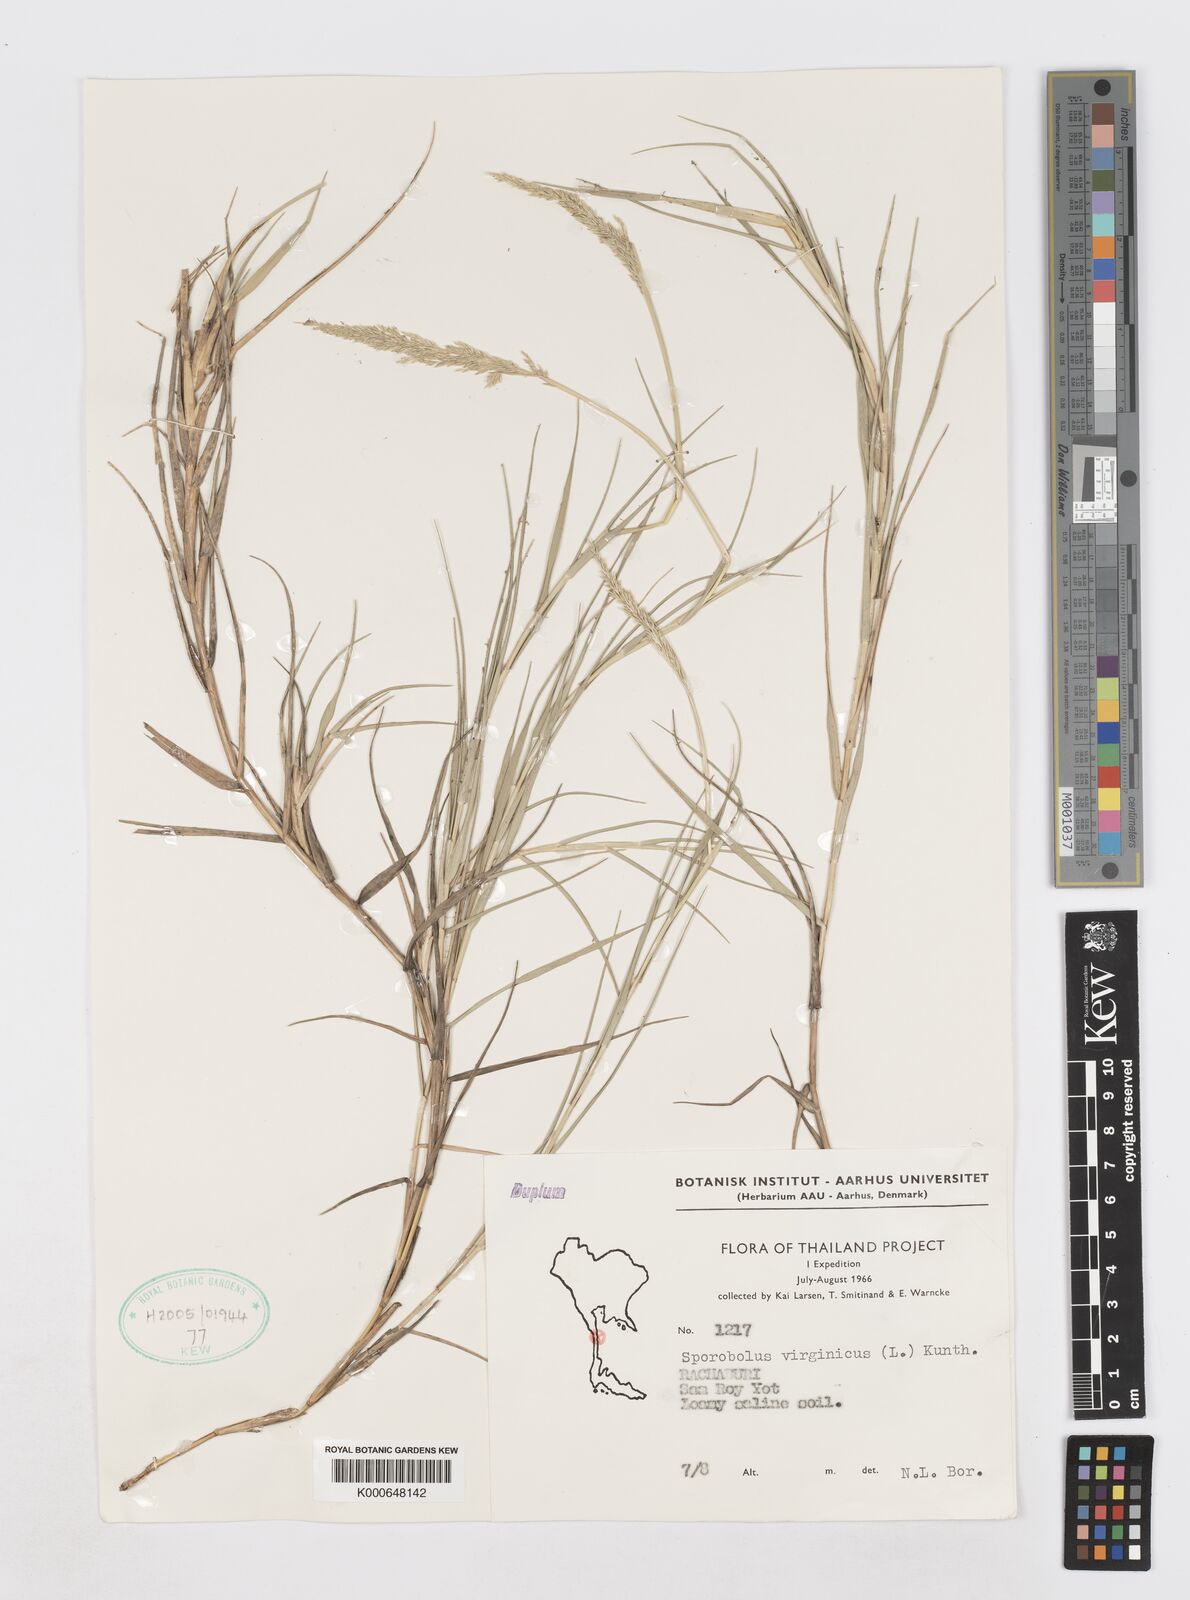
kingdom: Plantae
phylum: Tracheophyta
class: Liliopsida
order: Poales
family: Poaceae
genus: Sporobolus
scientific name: Sporobolus virginicus
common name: Beach dropseed
